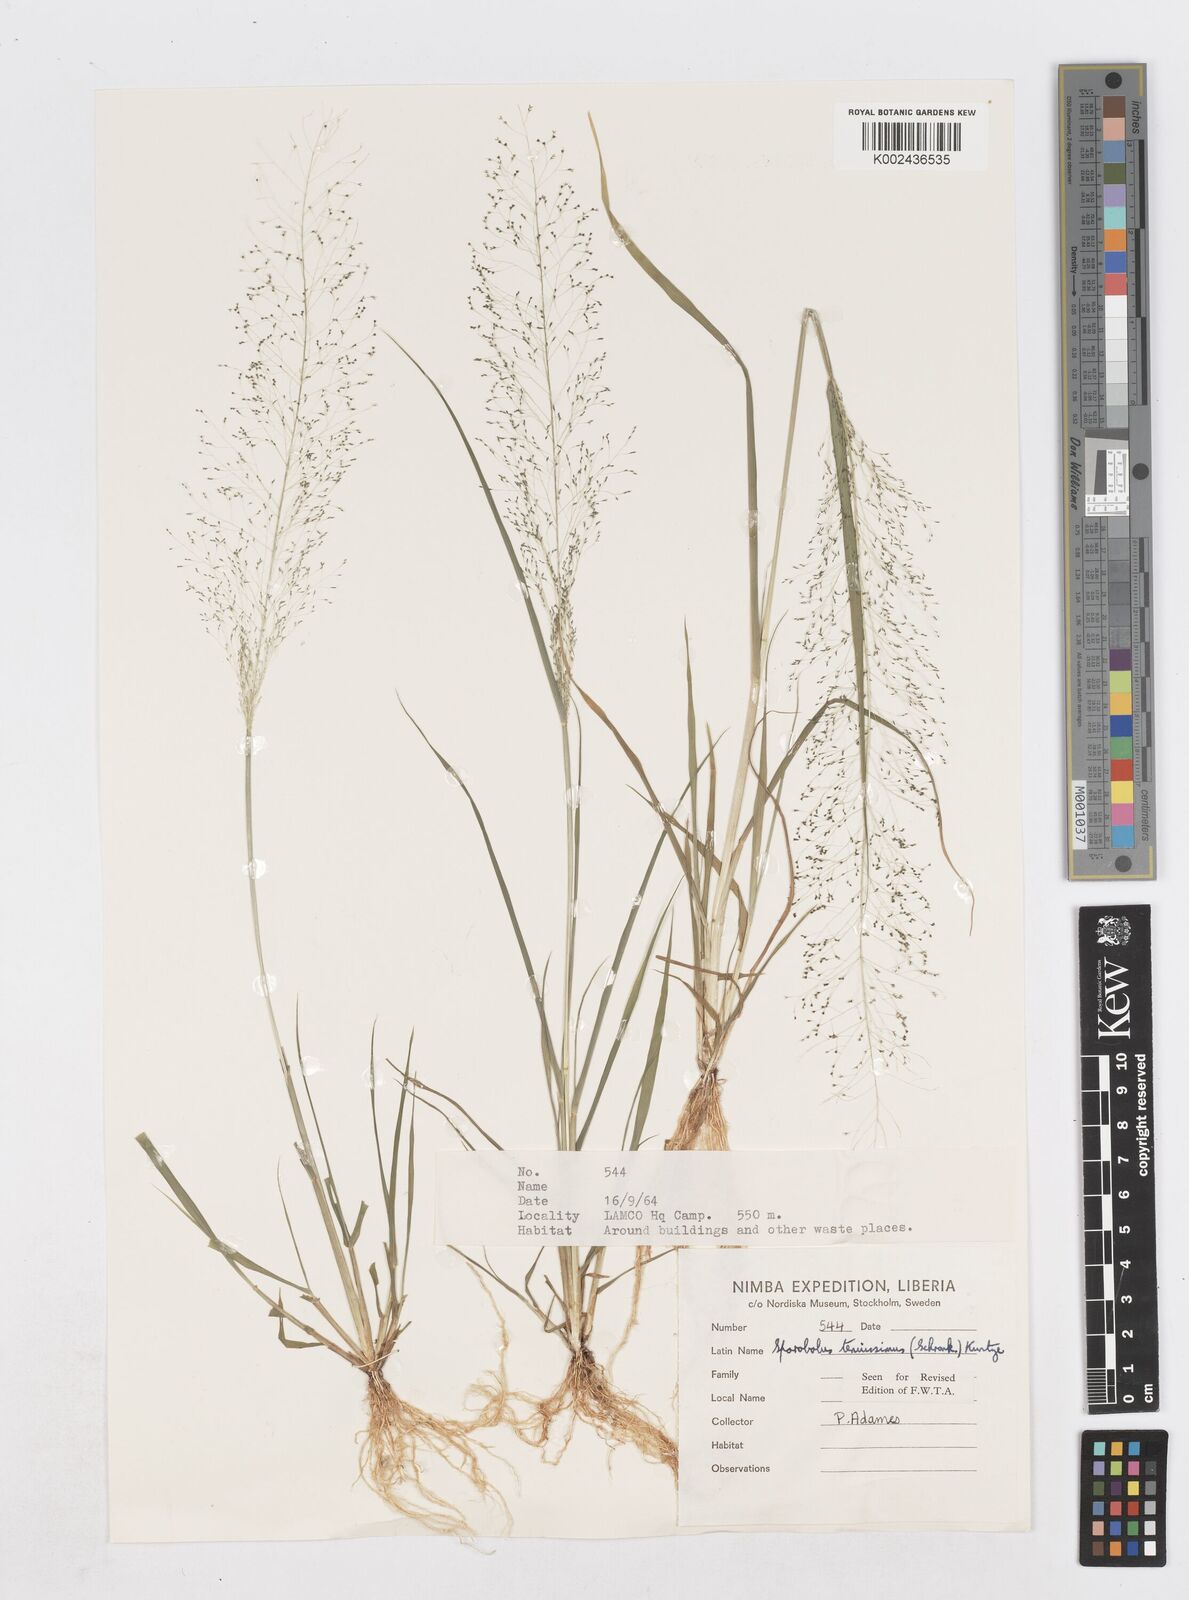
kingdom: Plantae
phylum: Tracheophyta
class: Liliopsida
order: Poales
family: Poaceae
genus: Sporobolus
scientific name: Sporobolus tenuissimus
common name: Tropical dropseed
